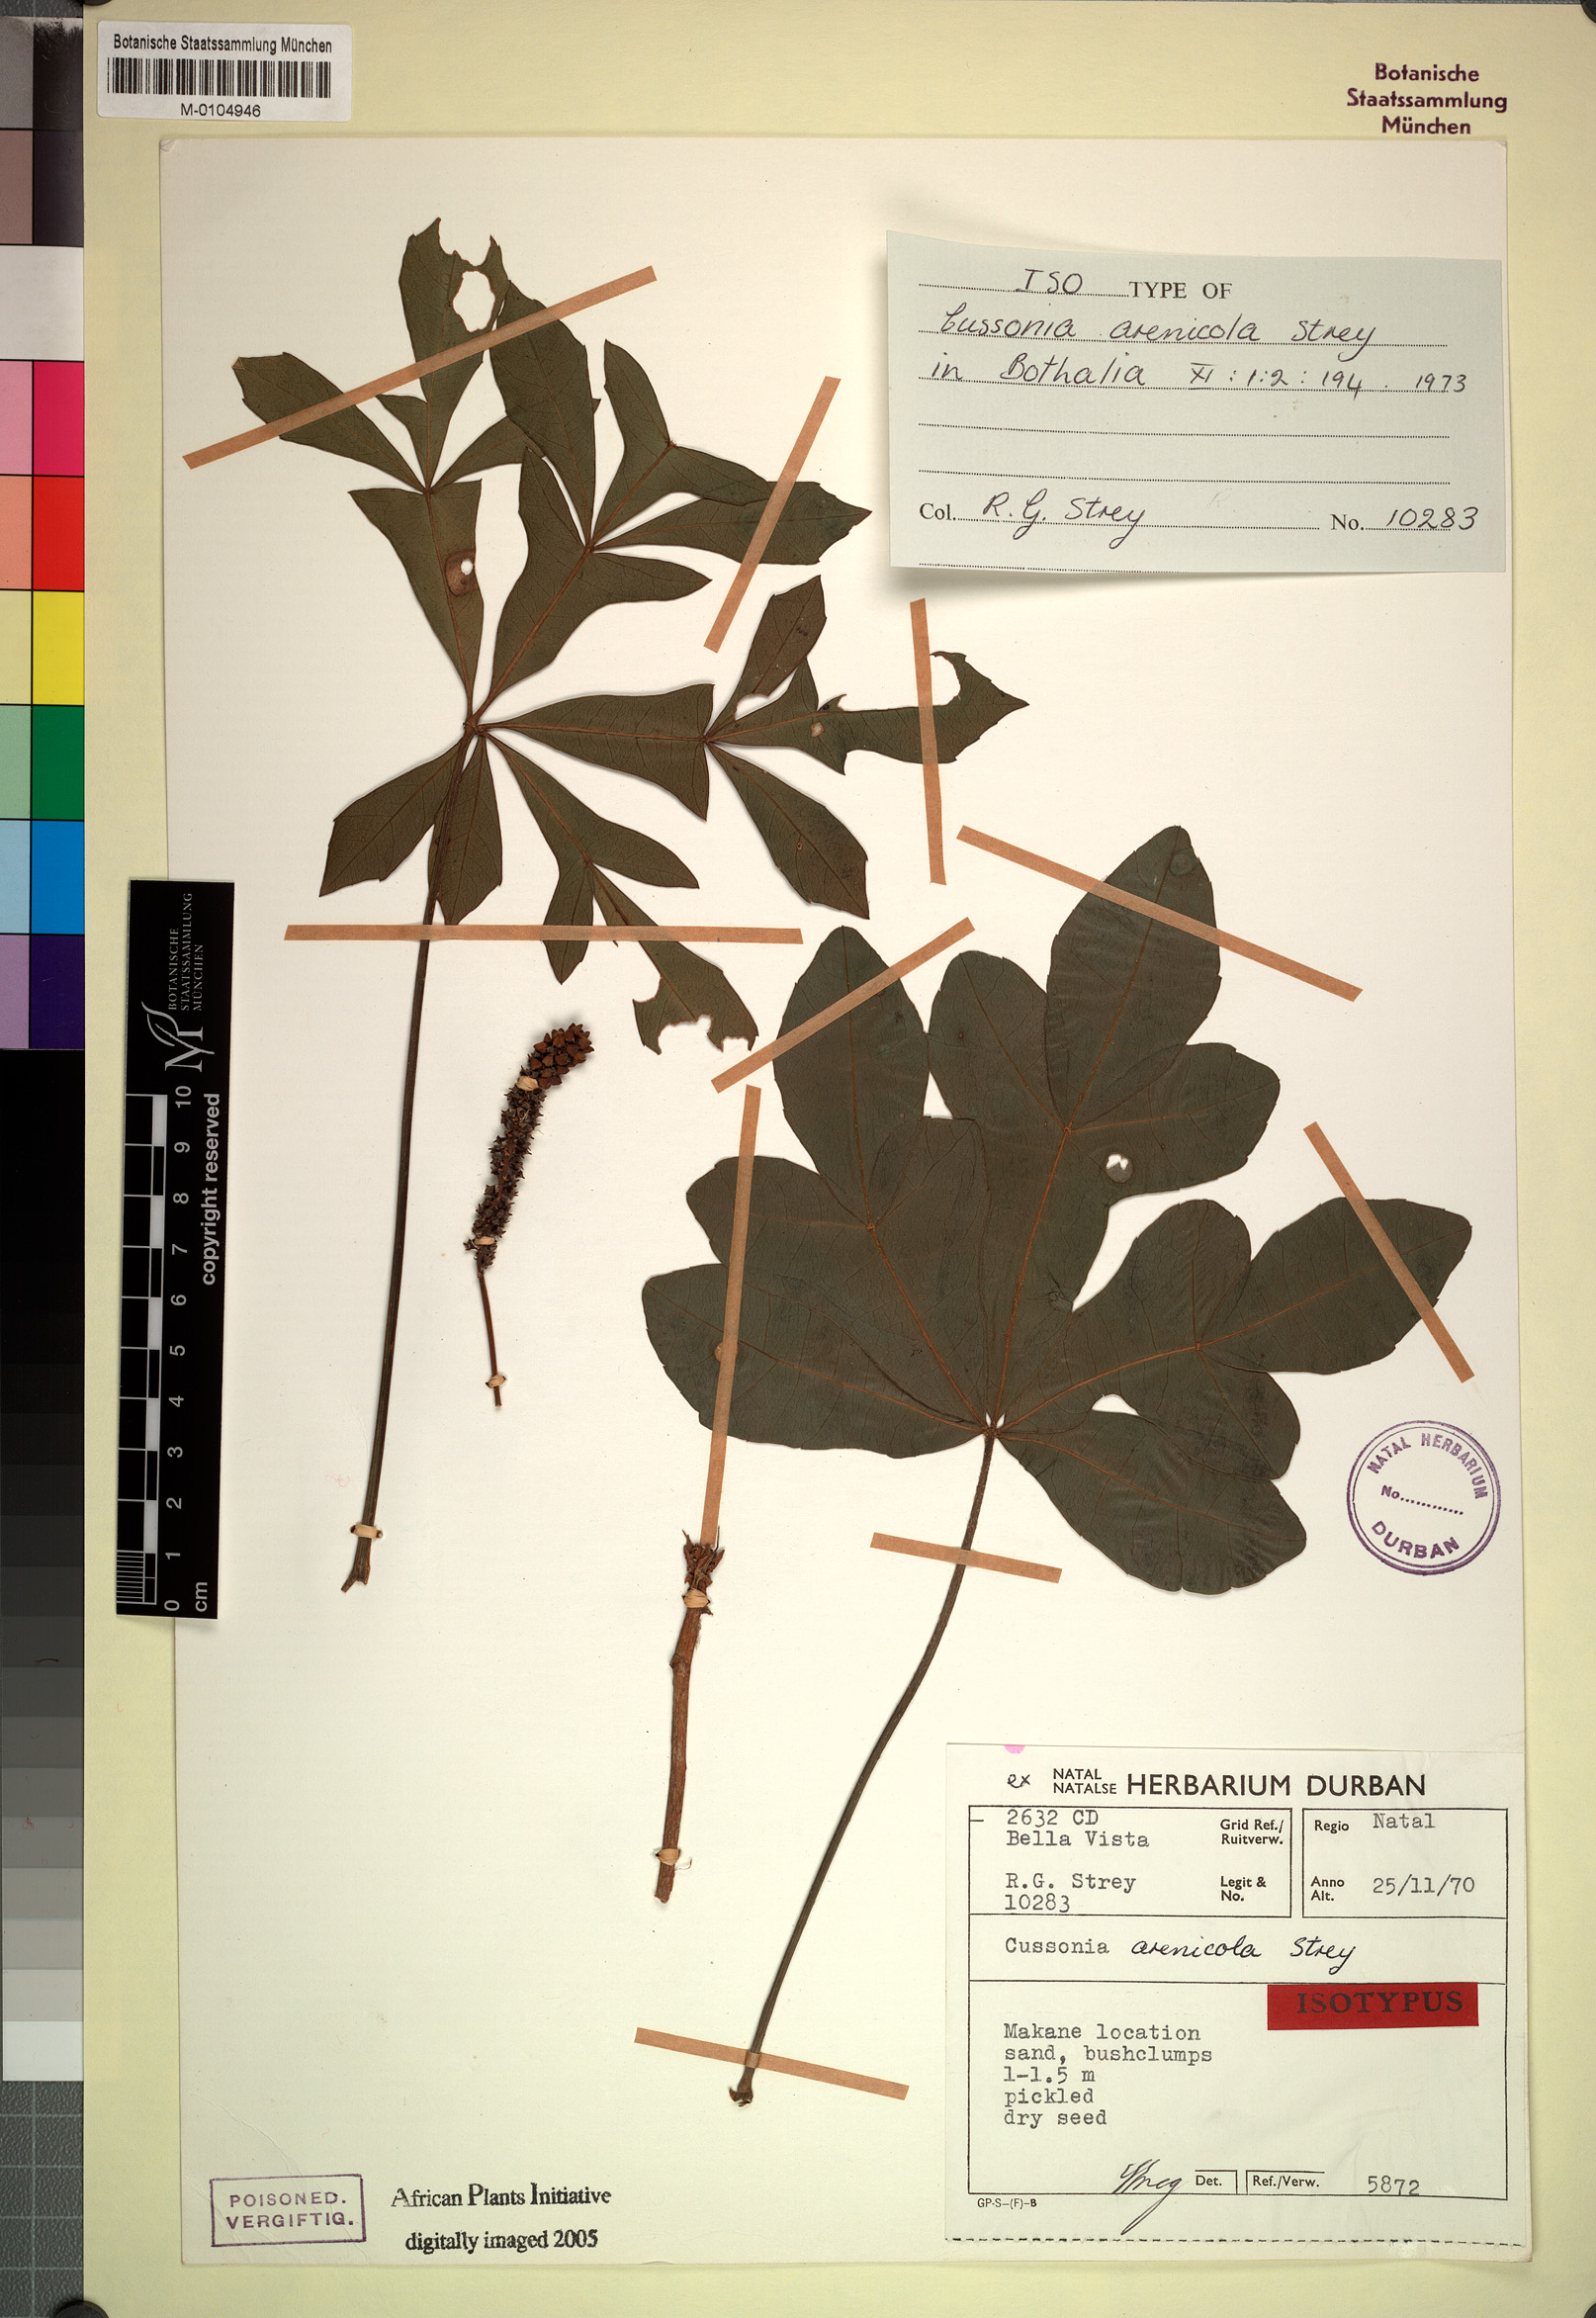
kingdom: Plantae
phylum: Tracheophyta
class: Magnoliopsida
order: Apiales
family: Araliaceae
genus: Cussonia
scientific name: Cussonia arenicola
